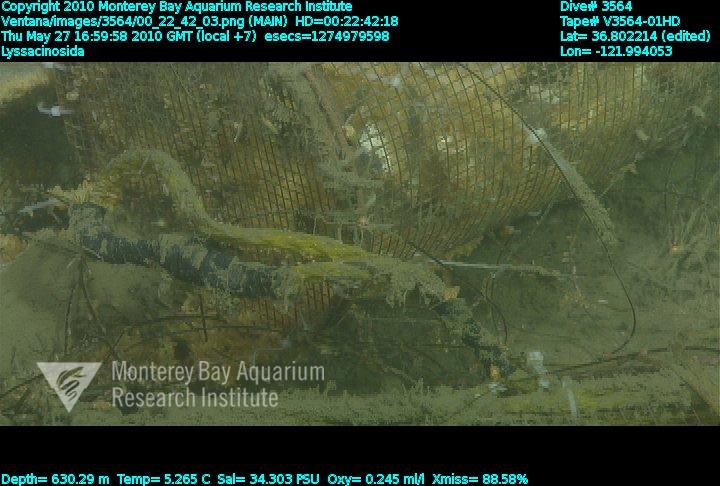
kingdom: Animalia
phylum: Porifera
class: Hexactinellida
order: Lyssacinosida
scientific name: Lyssacinosida
